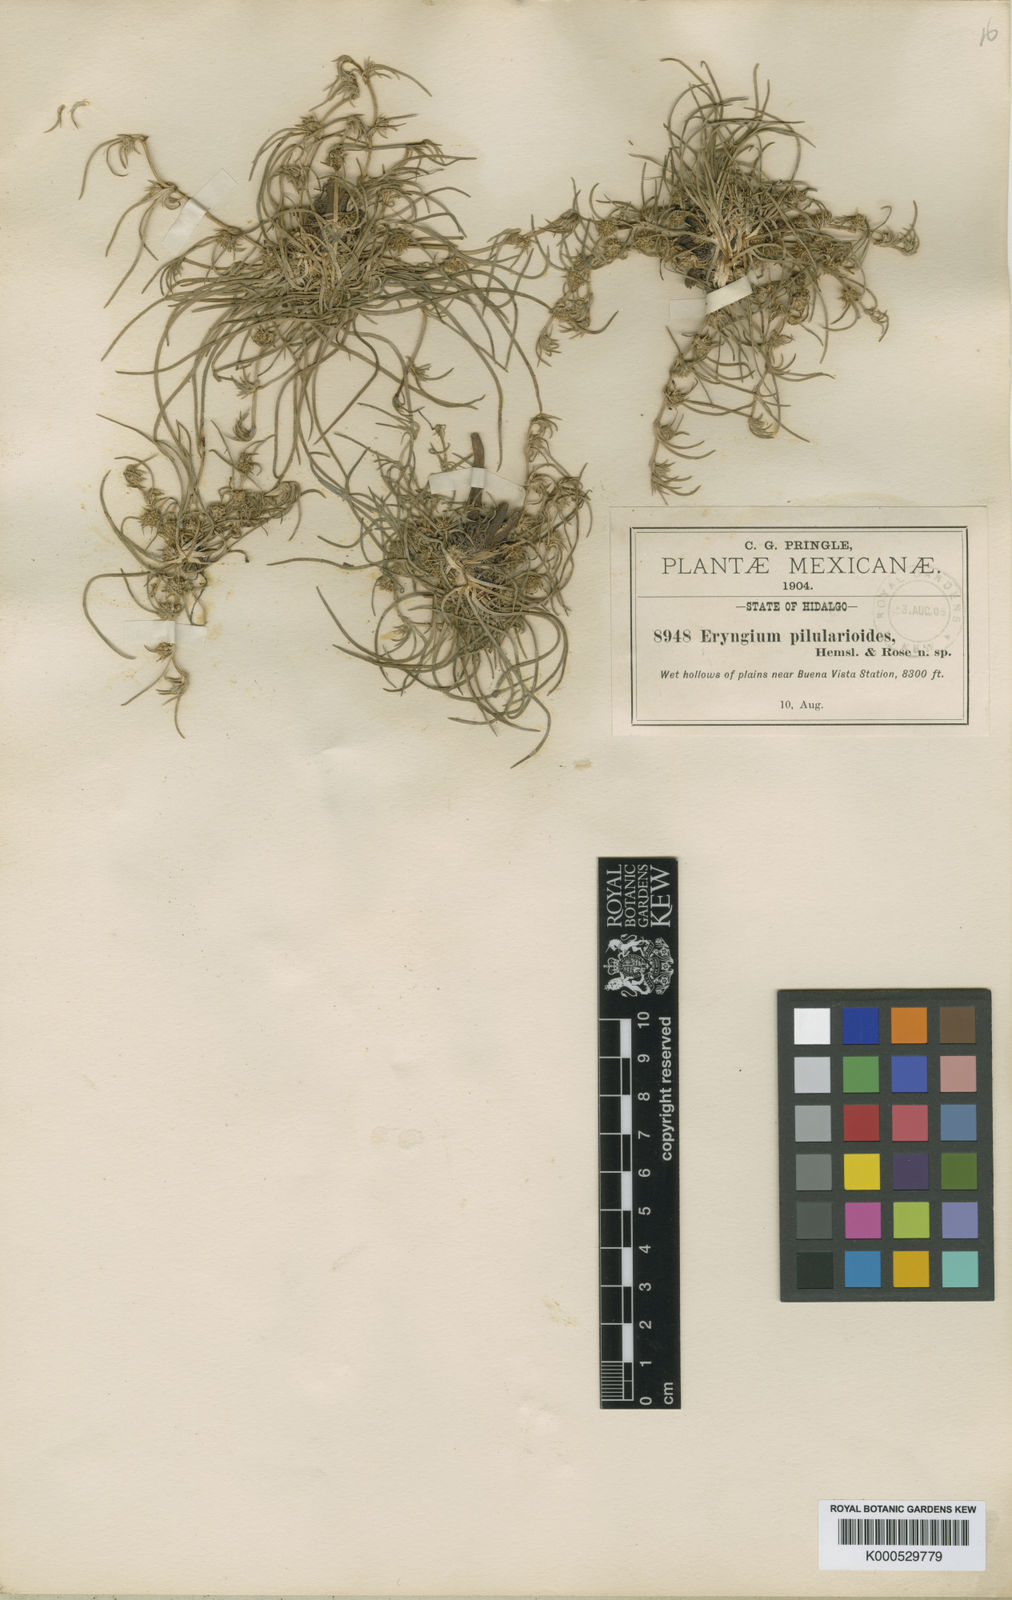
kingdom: Plantae
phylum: Tracheophyta
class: Magnoliopsida
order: Apiales
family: Apiaceae
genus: Eryngium
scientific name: Eryngium pilularioides
